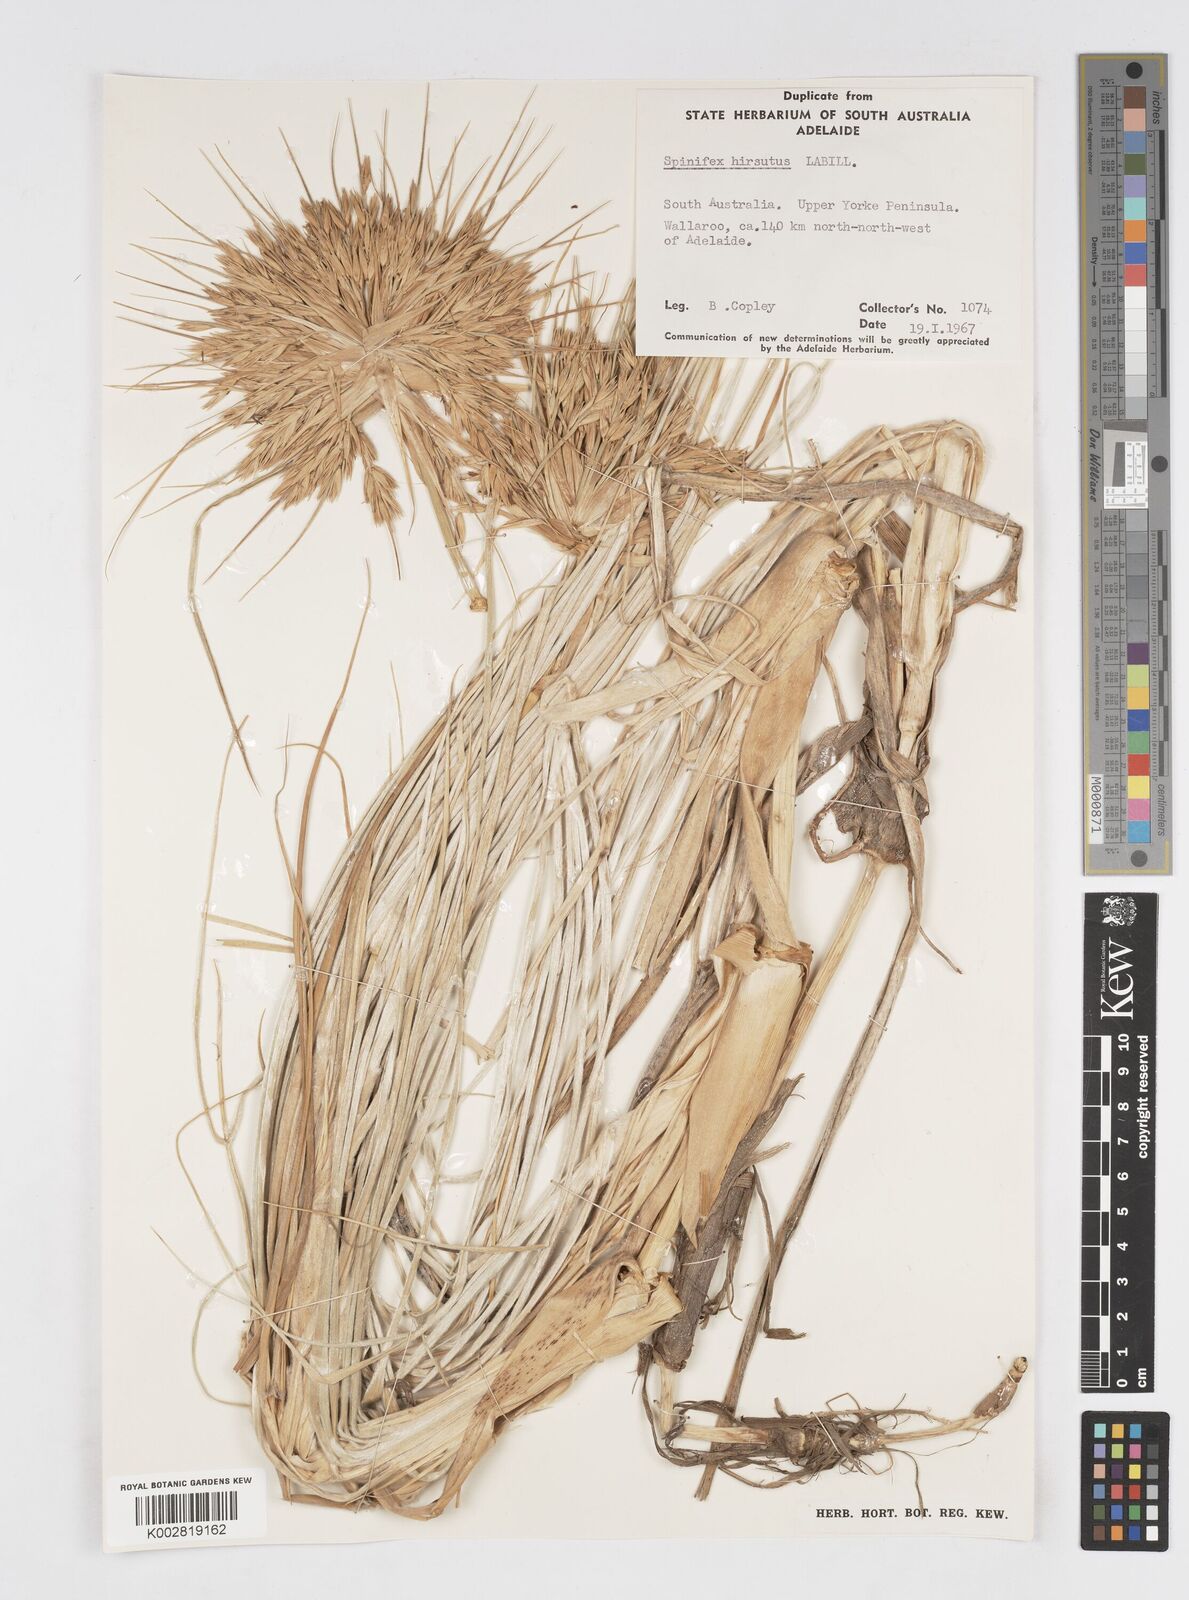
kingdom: Plantae
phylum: Tracheophyta
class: Liliopsida
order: Poales
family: Poaceae
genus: Spinifex
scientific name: Spinifex hirsutus
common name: Hairy spinifex
